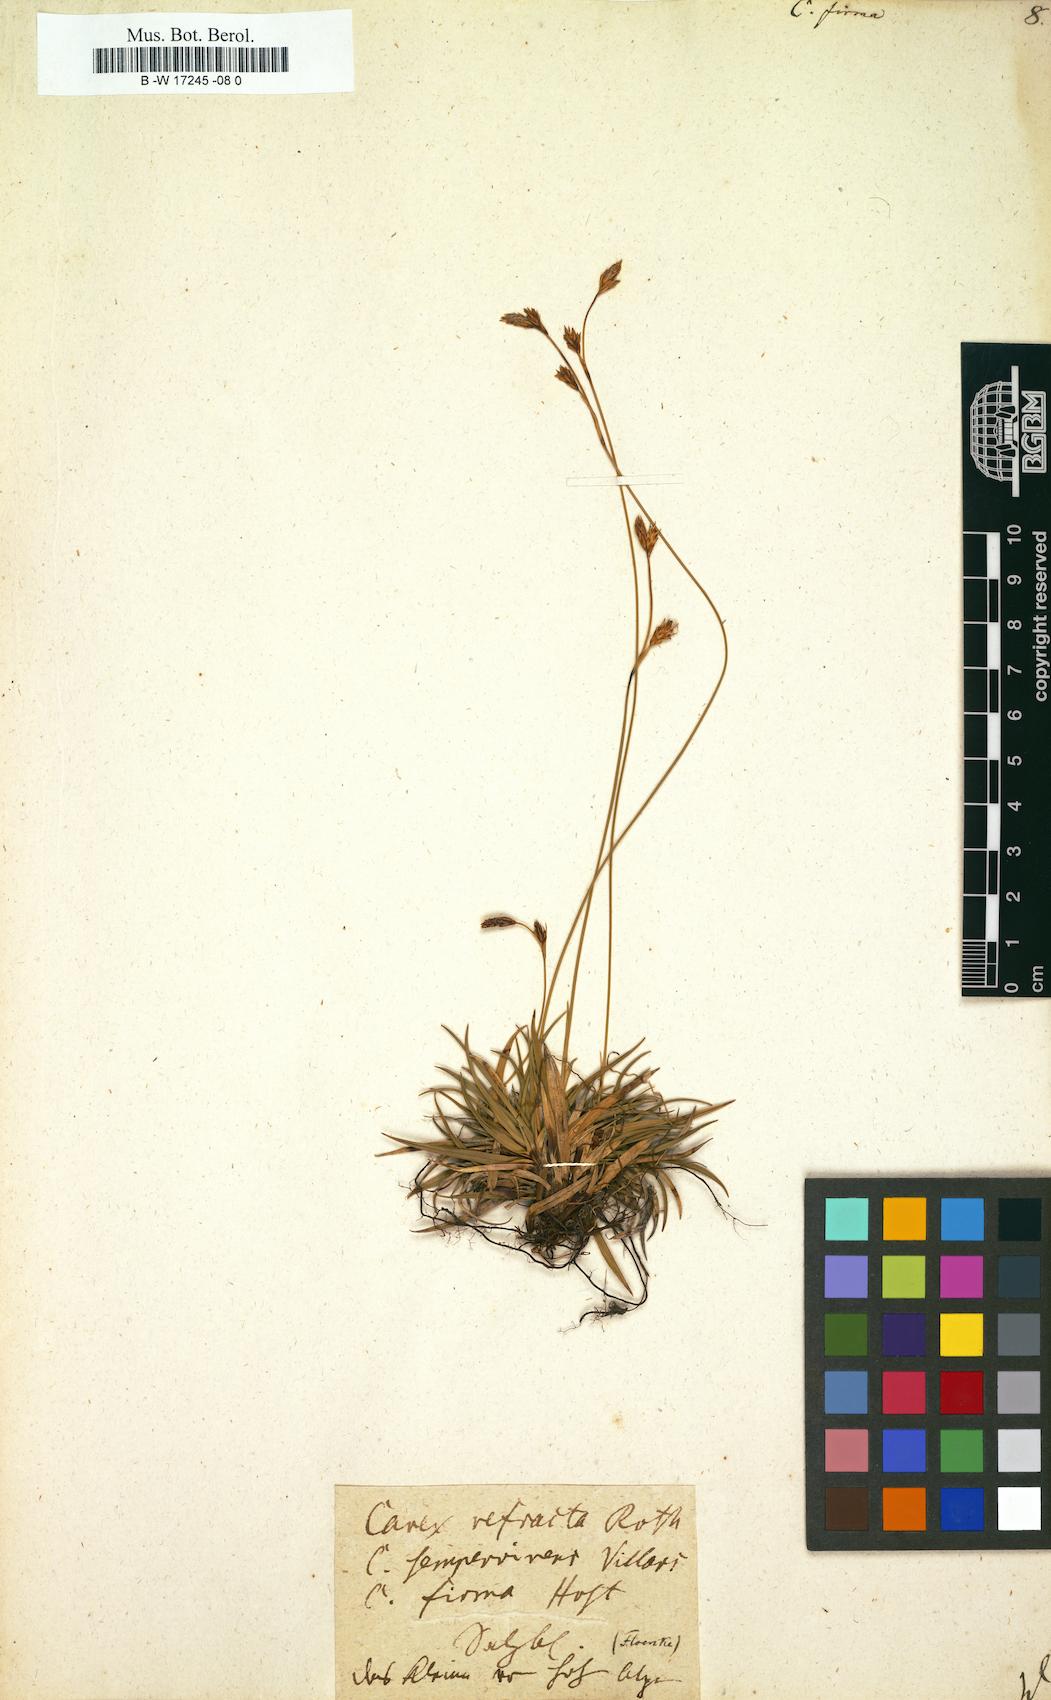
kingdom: Plantae
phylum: Tracheophyta
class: Liliopsida
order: Poales
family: Cyperaceae
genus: Carex
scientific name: Carex firma
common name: Dwarf pillow sedge
